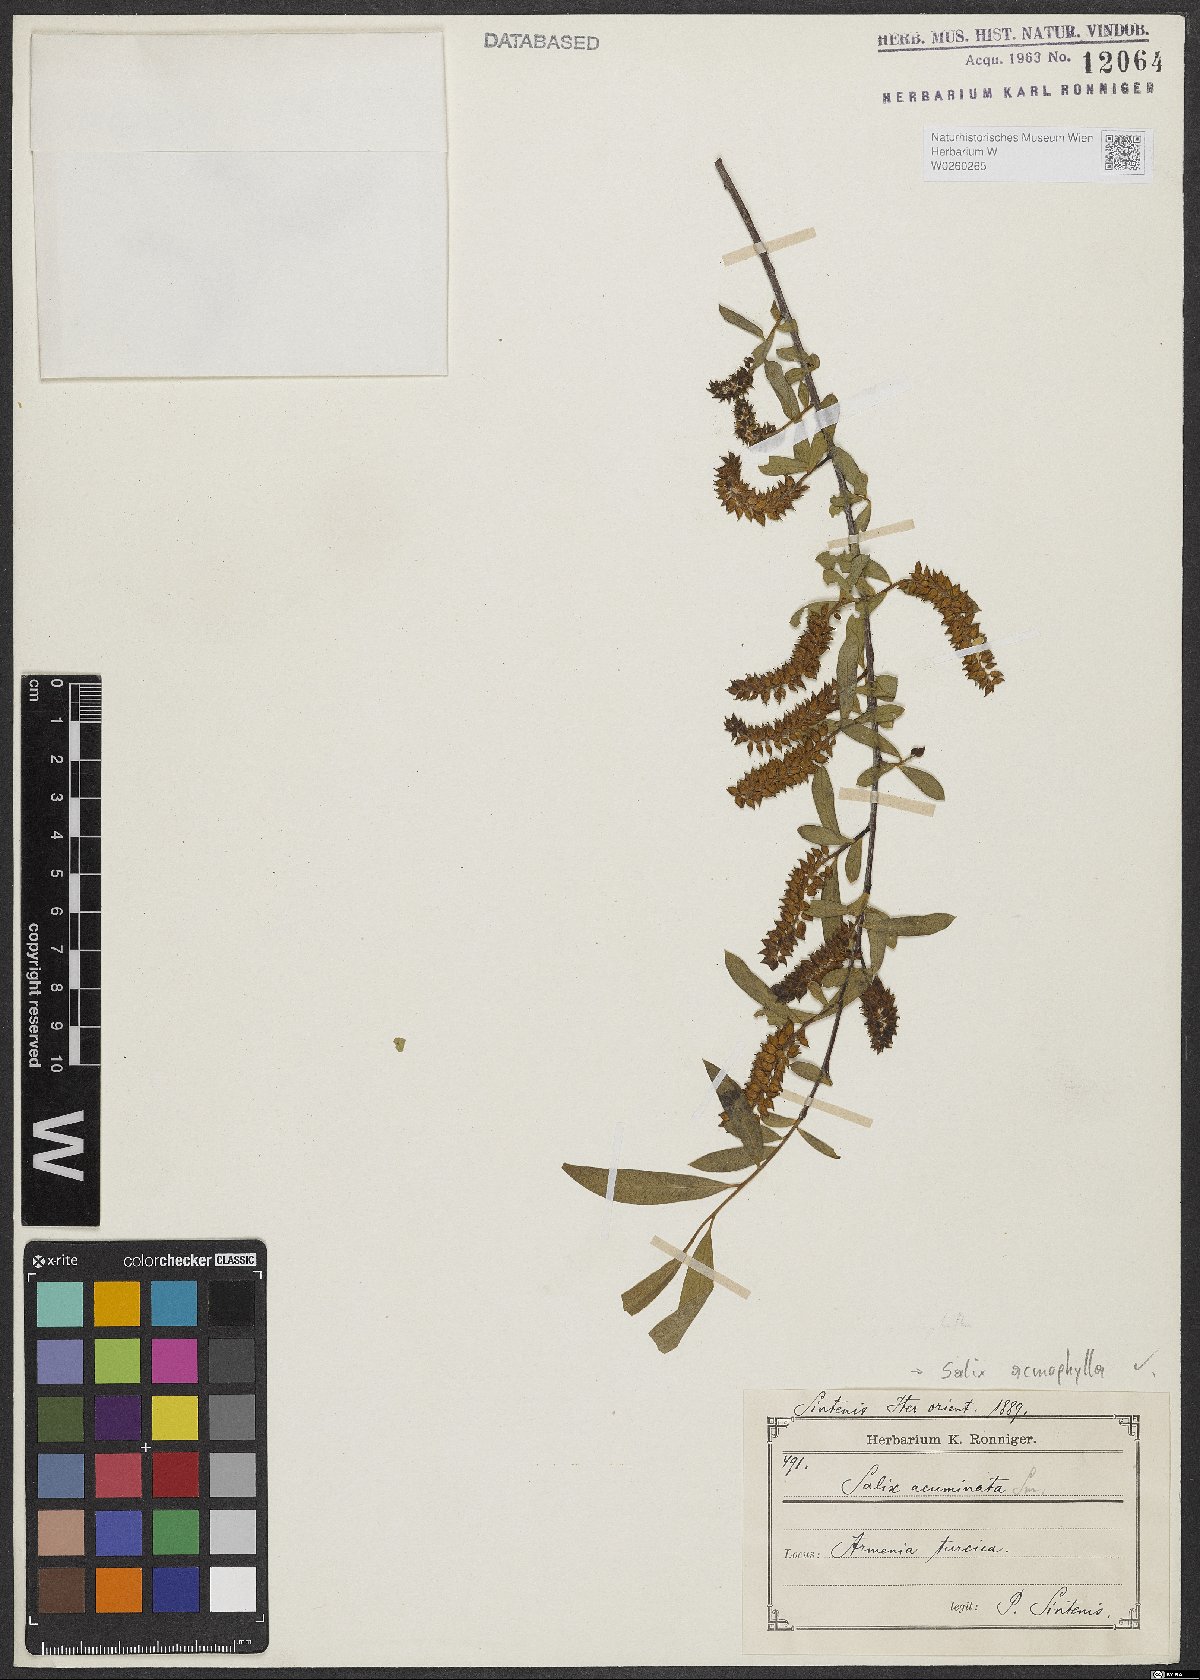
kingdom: Plantae
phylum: Tracheophyta
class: Magnoliopsida
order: Malpighiales
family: Salicaceae
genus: Salix
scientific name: Salix acmophylla
